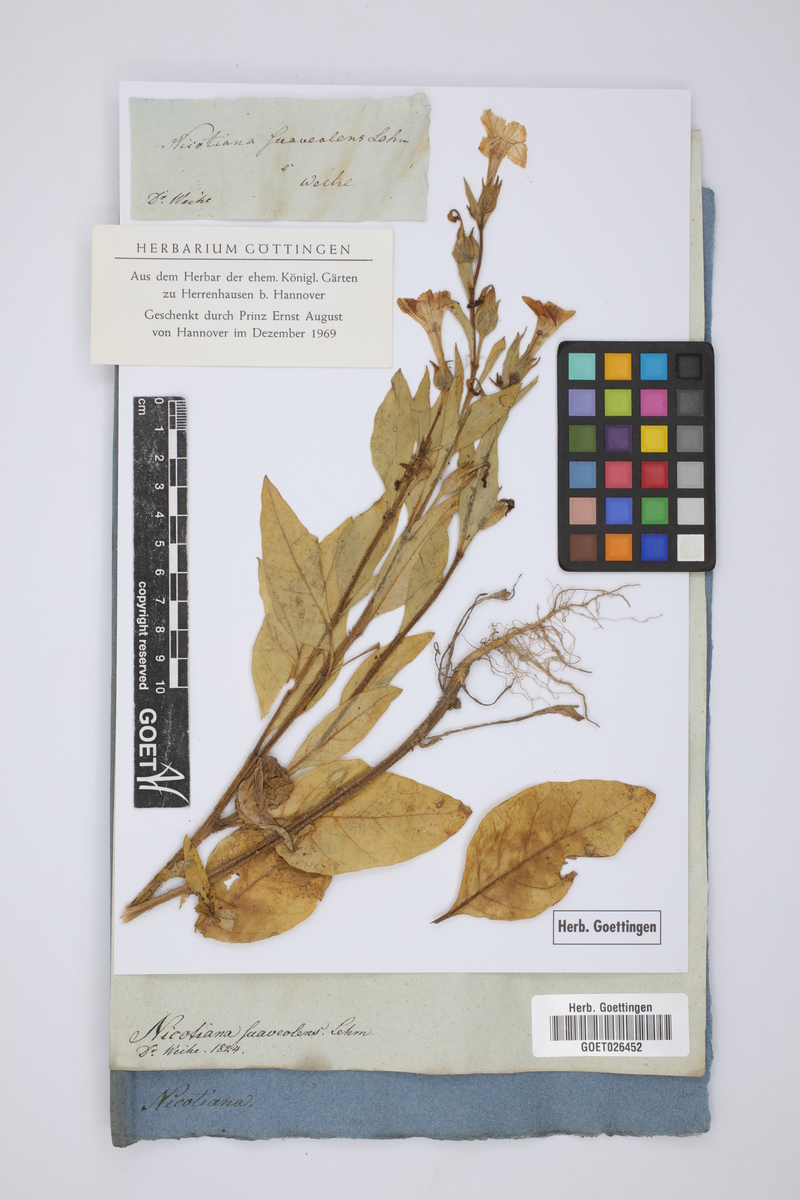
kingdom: Plantae
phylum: Tracheophyta
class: Magnoliopsida
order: Solanales
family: Solanaceae
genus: Nicotiana
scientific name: Nicotiana suaveolens
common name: Australian tobacco
